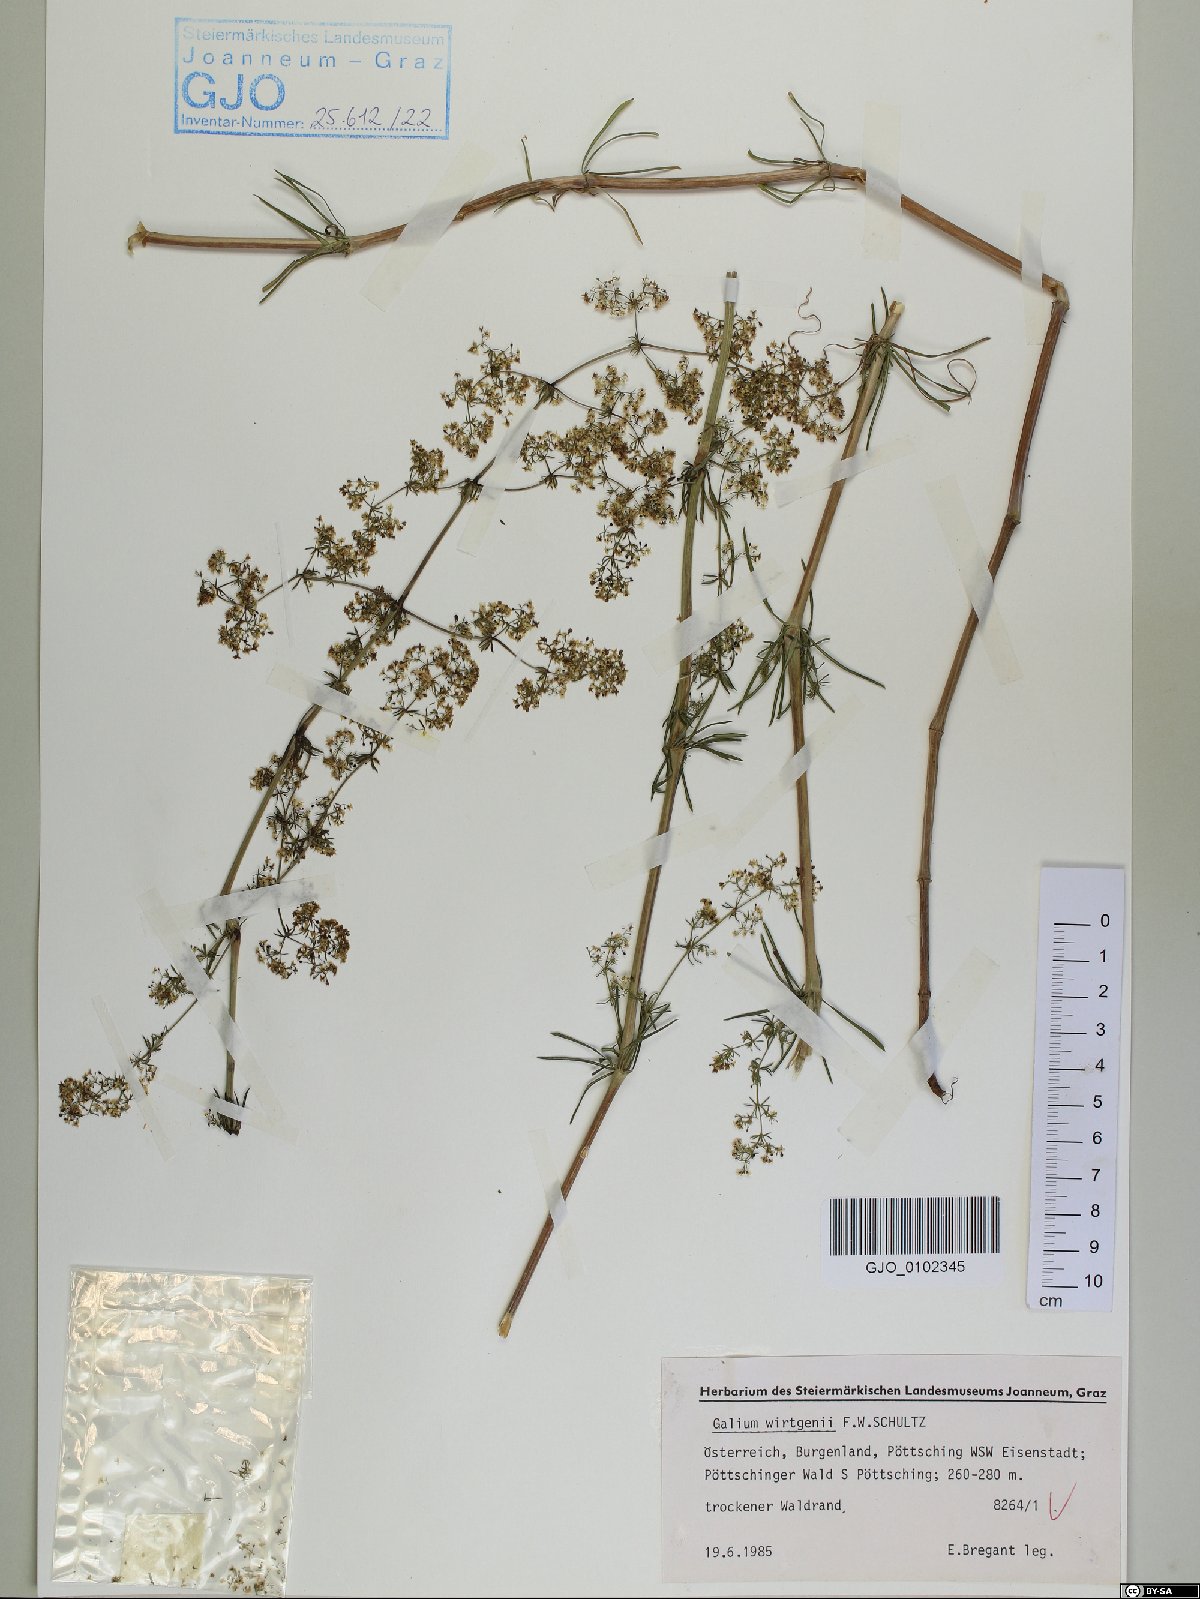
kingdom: Plantae
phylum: Tracheophyta
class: Magnoliopsida
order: Gentianales
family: Rubiaceae
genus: Galium
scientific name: Galium verum
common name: Lady's bedstraw
